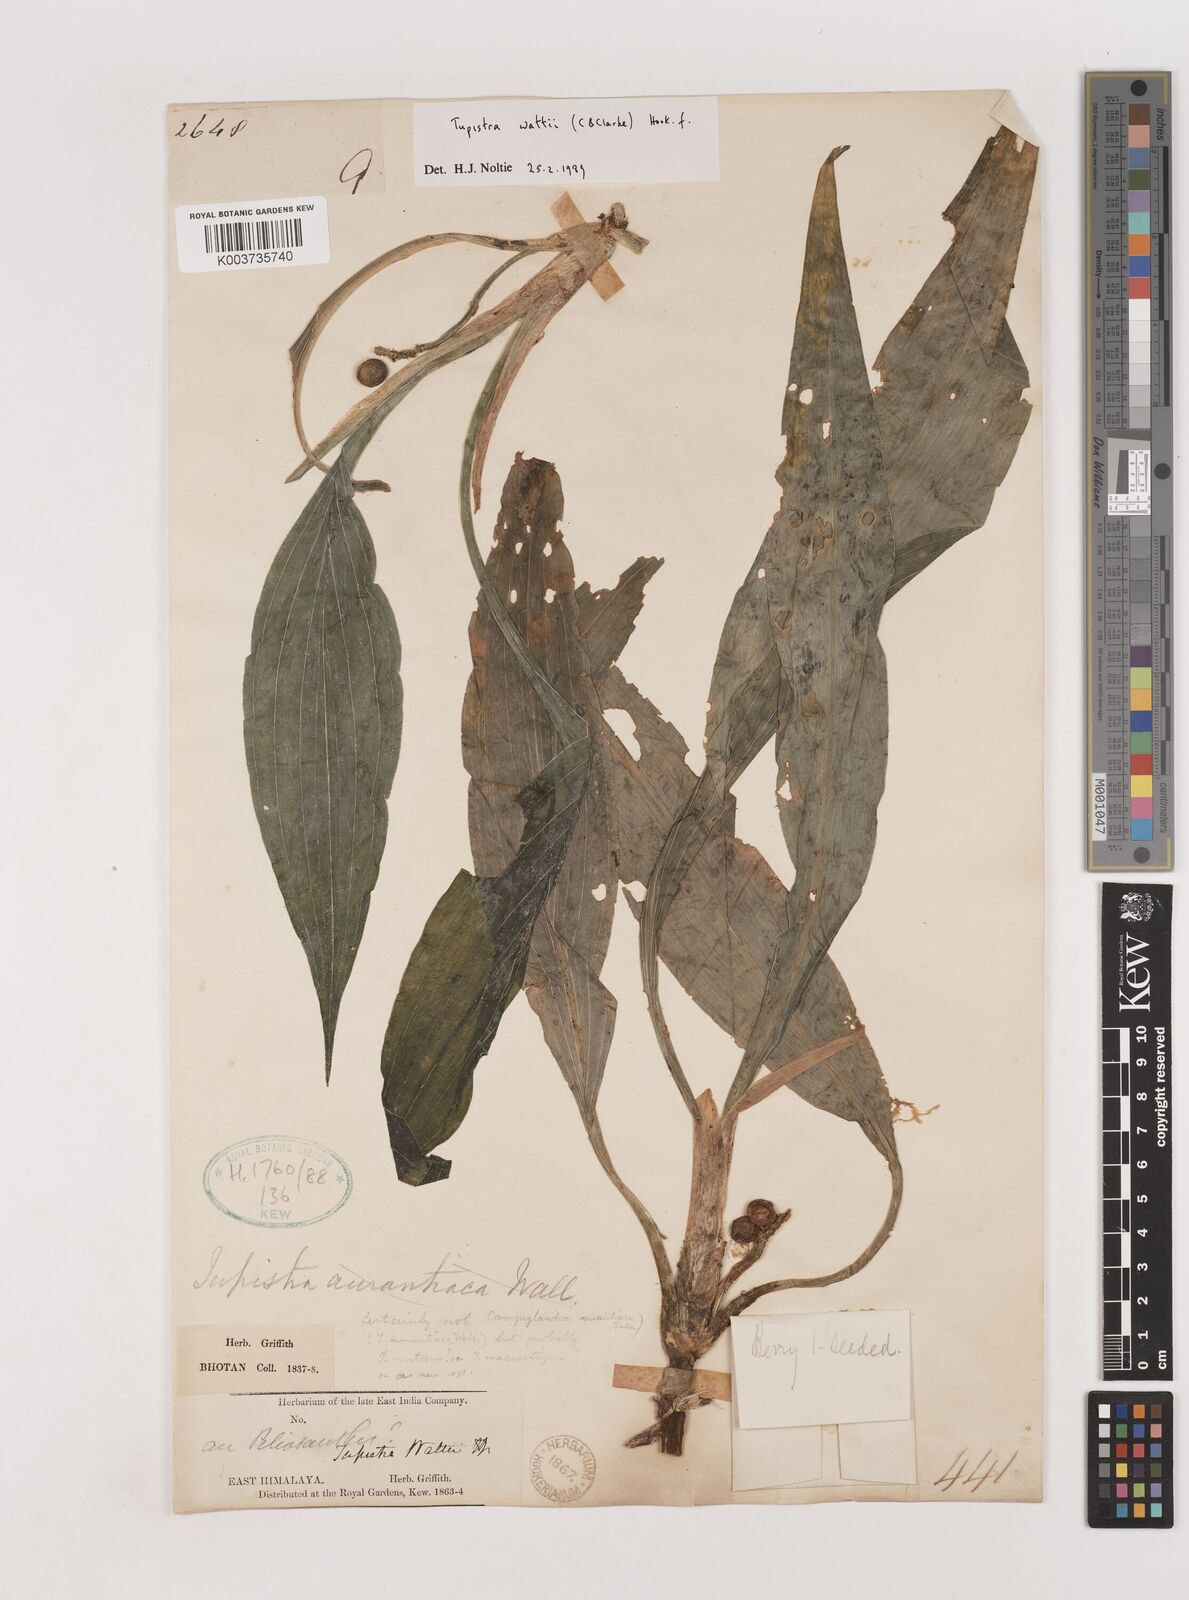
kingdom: Plantae
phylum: Tracheophyta
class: Liliopsida
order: Asparagales
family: Asparagaceae
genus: Rohdea
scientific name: Rohdea wattii
